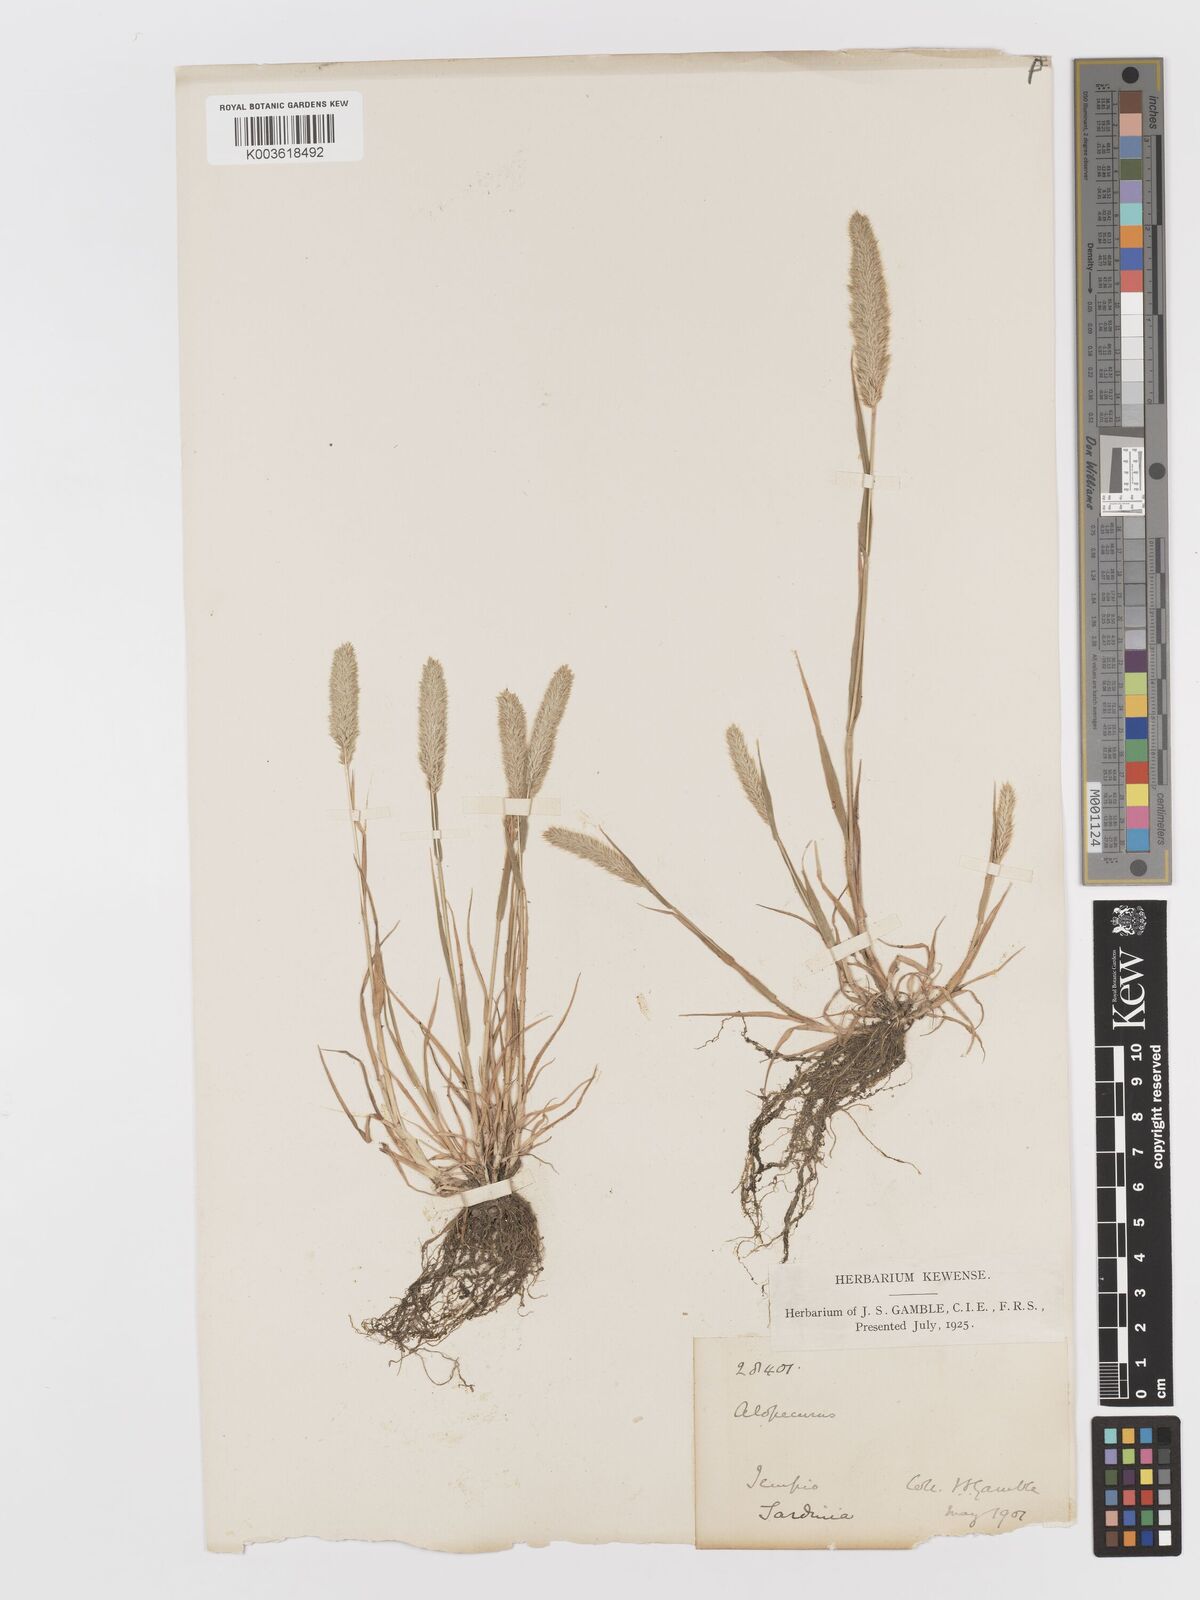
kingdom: Plantae
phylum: Tracheophyta
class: Liliopsida
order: Poales
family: Poaceae
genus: Rostraria
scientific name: Rostraria cristata
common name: Mediterranean hair-grass
